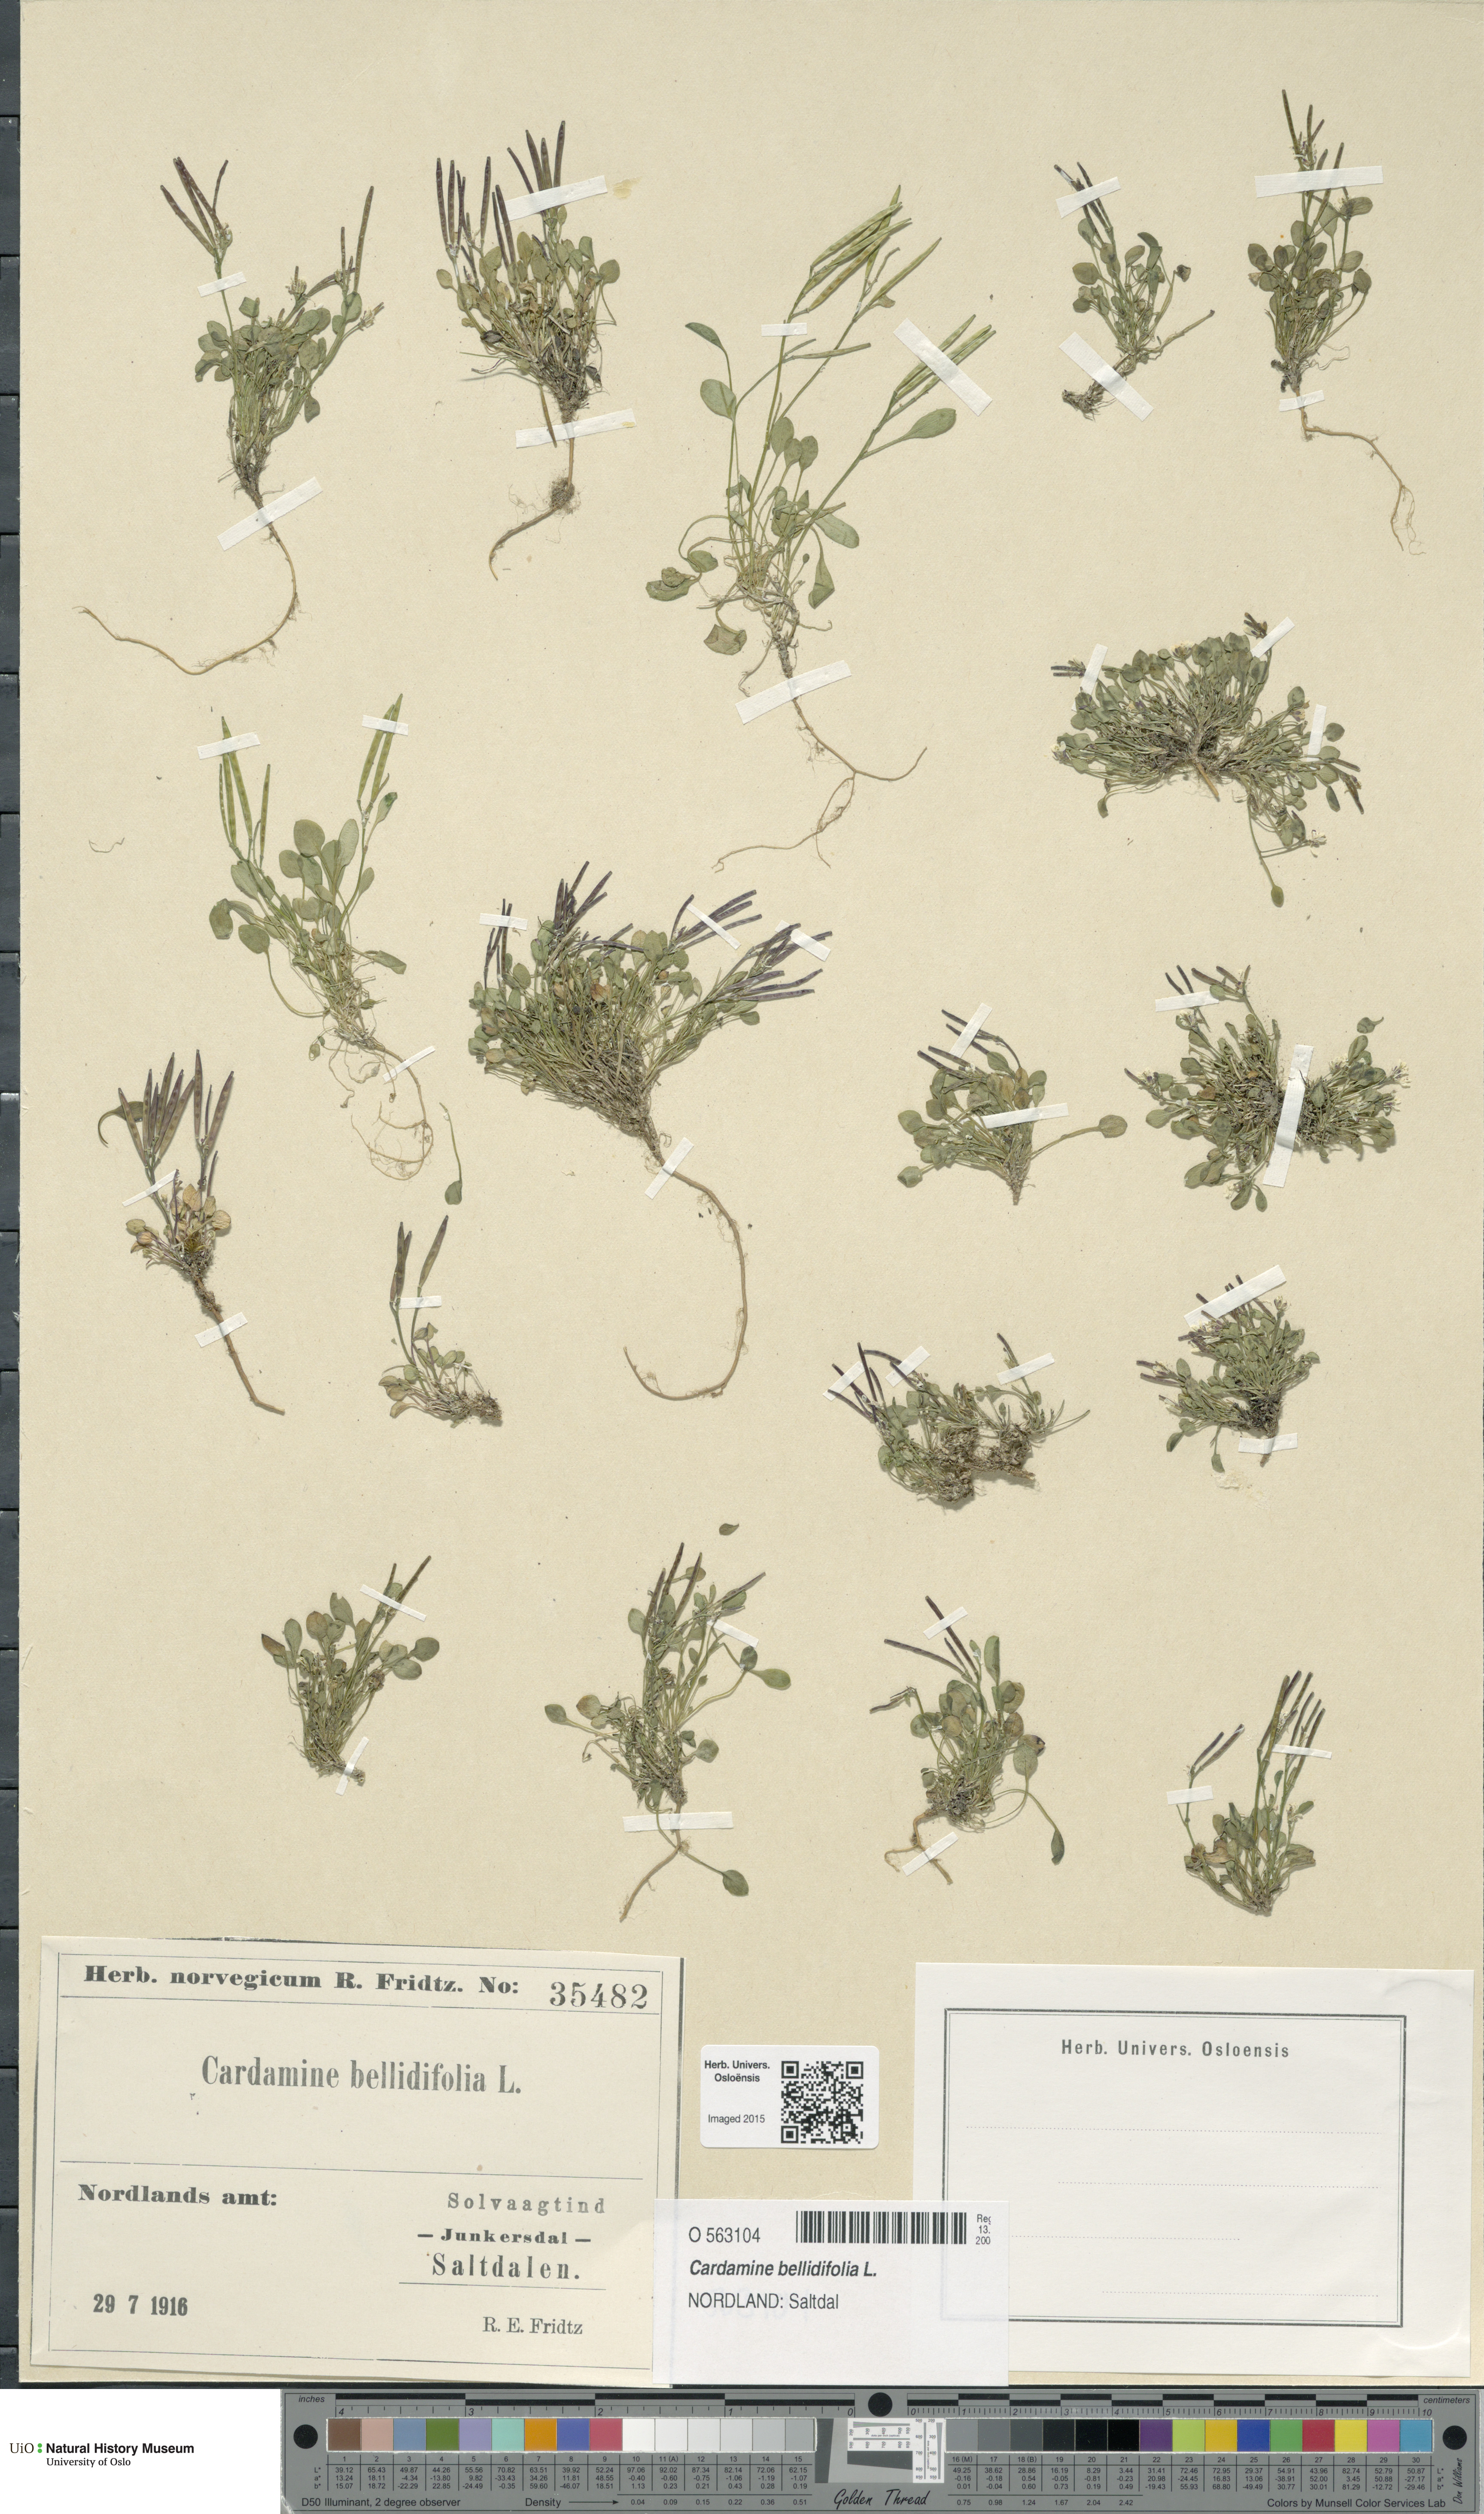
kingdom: Plantae
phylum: Tracheophyta
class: Magnoliopsida
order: Brassicales
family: Brassicaceae
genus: Cardamine
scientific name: Cardamine bellidifolia
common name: Alpine bittercress
